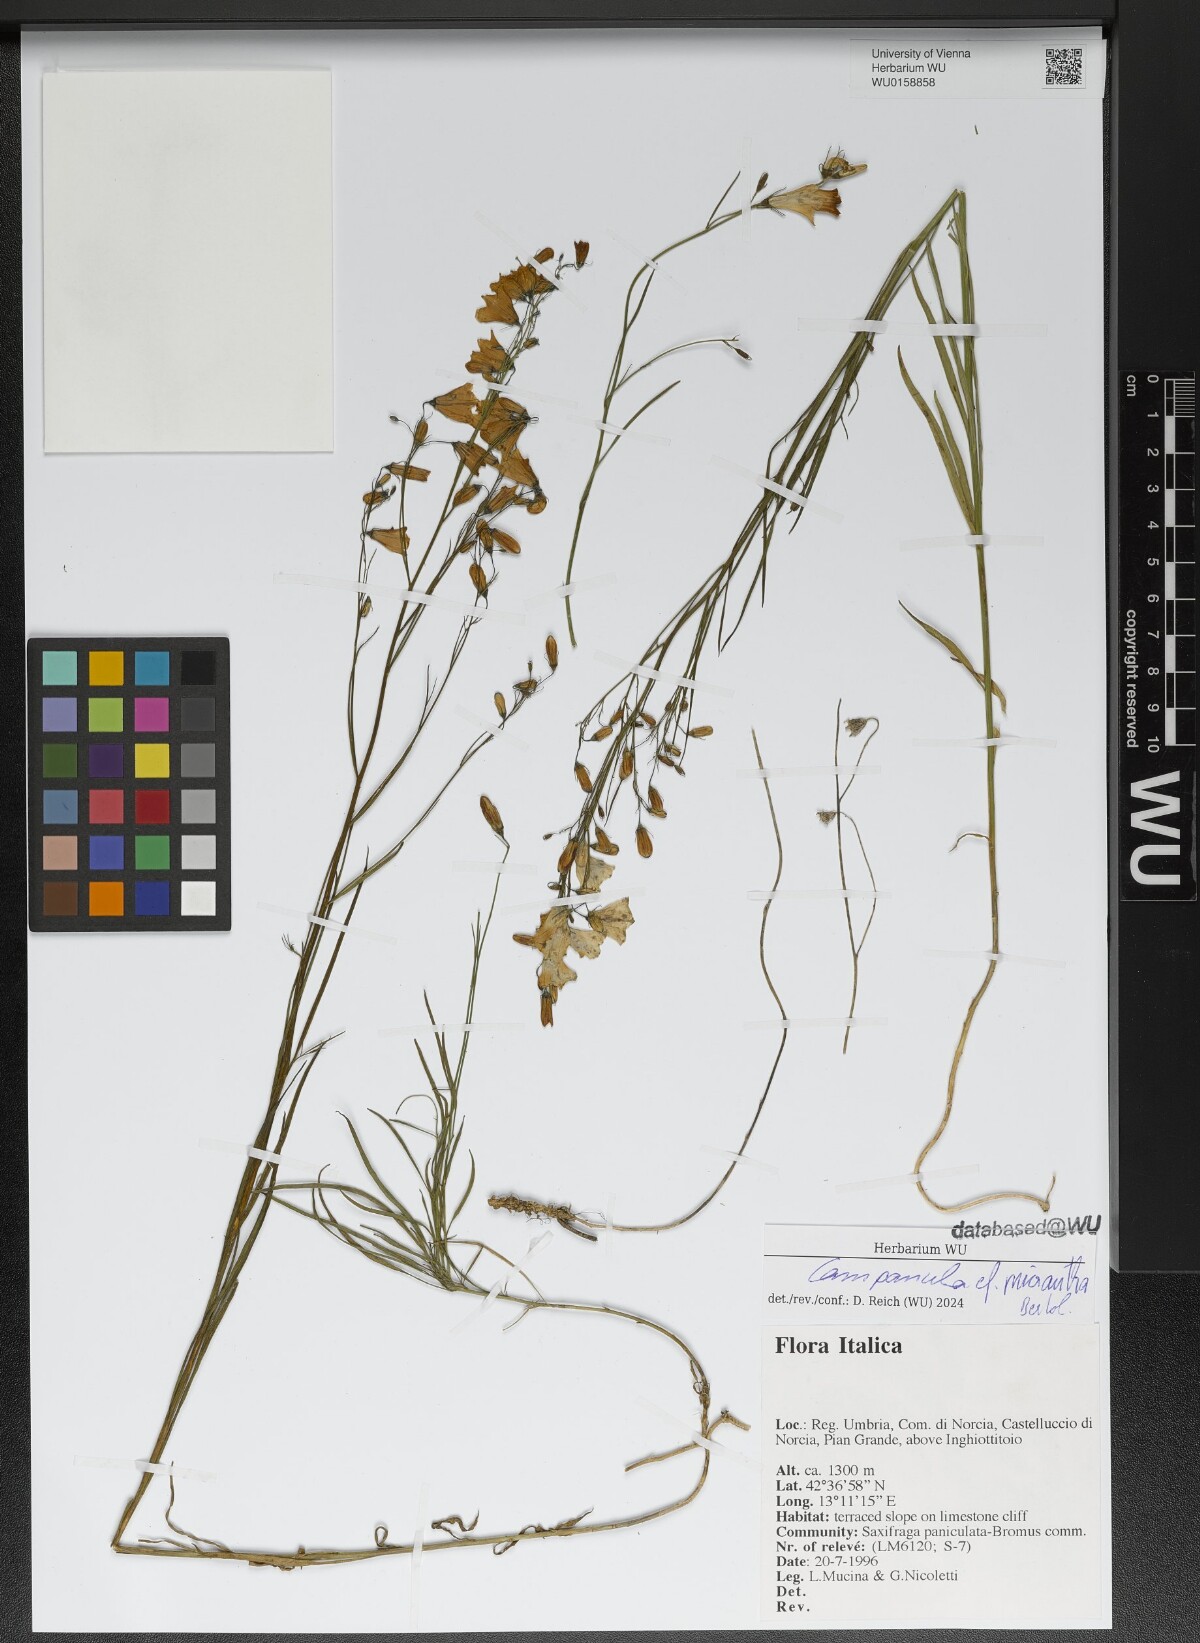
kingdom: Plantae
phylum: Tracheophyta
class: Magnoliopsida
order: Asterales
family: Campanulaceae
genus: Campanula
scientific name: Campanula micrantha
